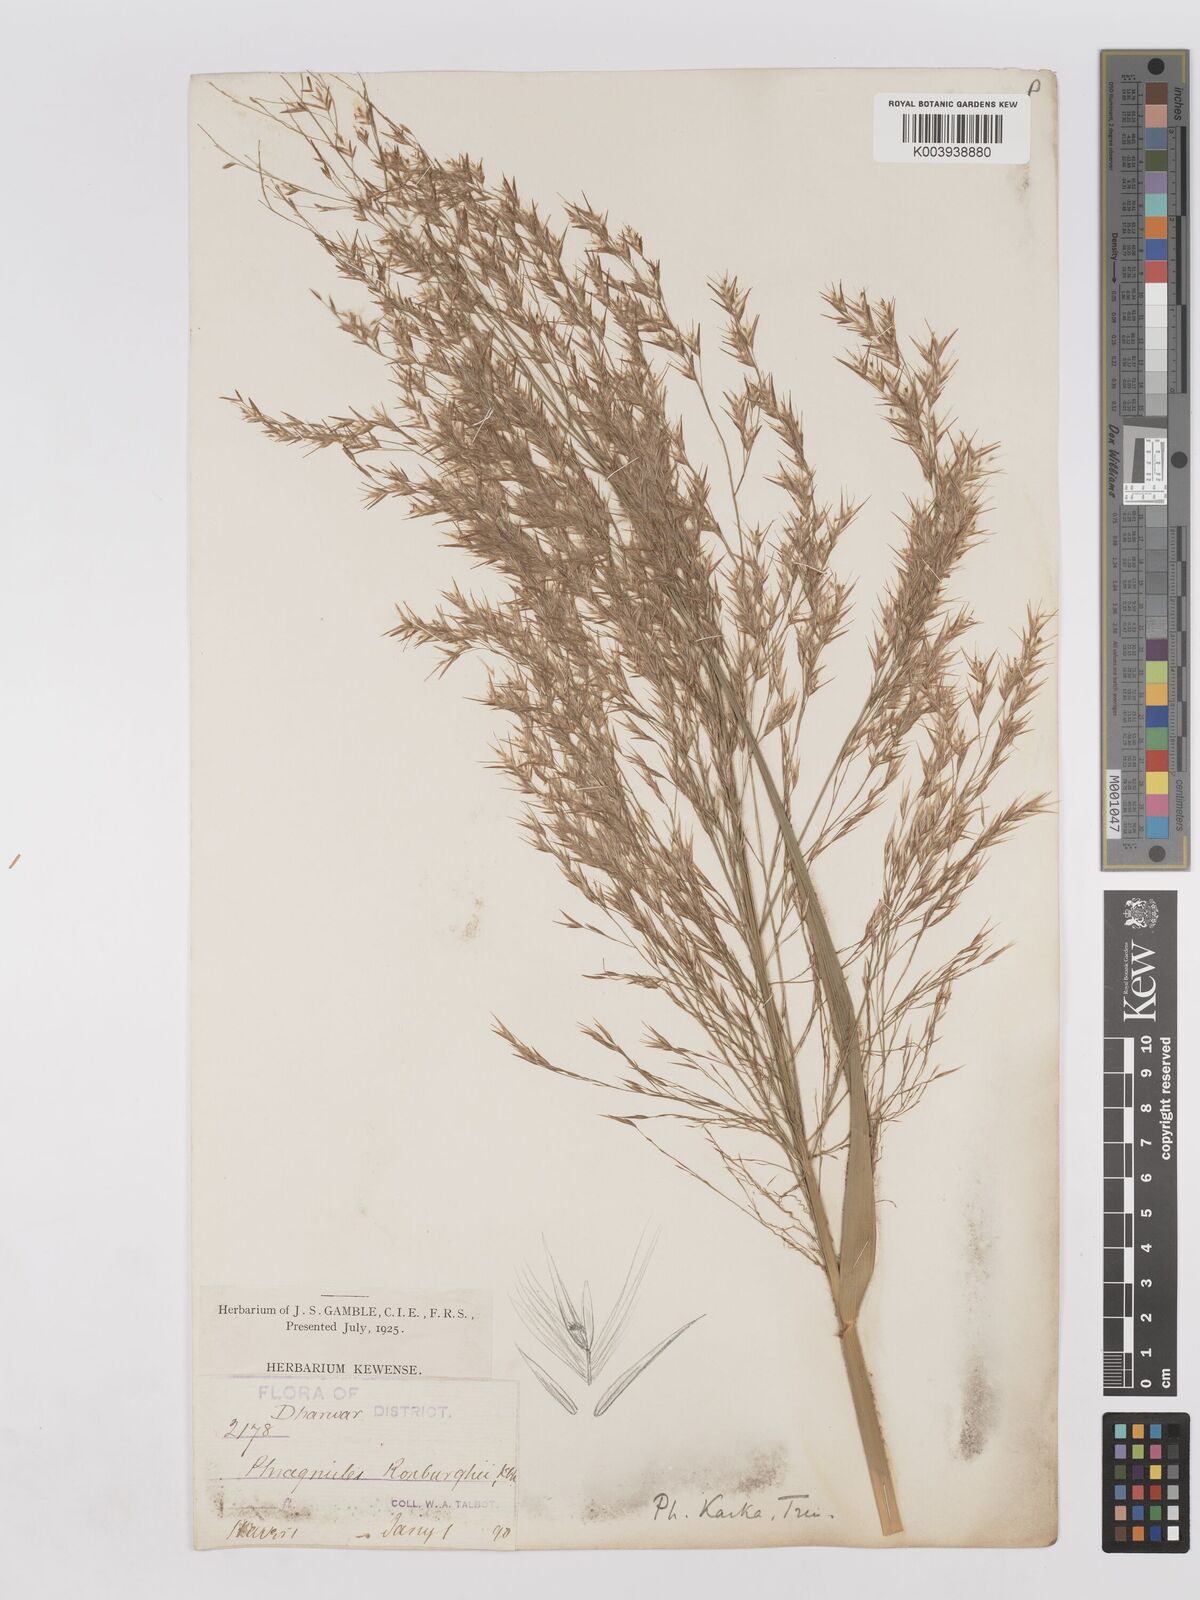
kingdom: Plantae
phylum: Tracheophyta
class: Liliopsida
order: Poales
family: Poaceae
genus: Phragmites
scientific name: Phragmites karka
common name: Tropical reed
